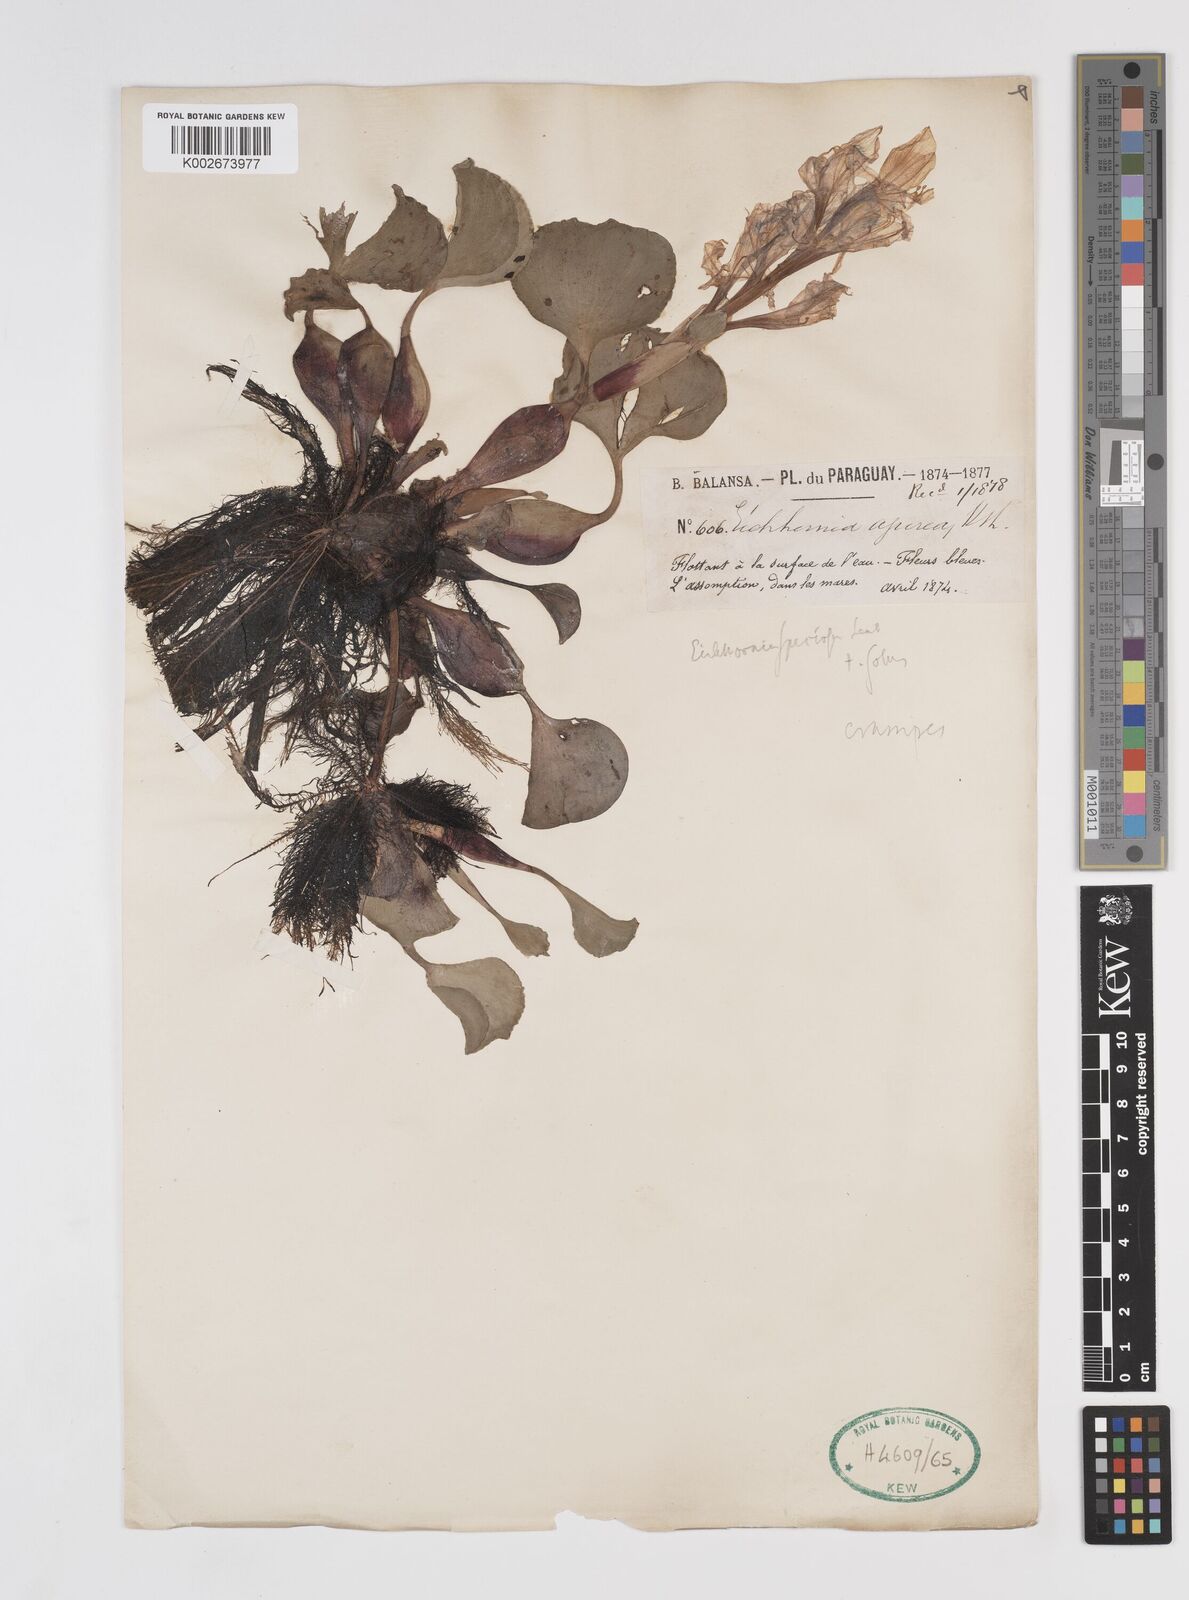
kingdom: Plantae
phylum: Tracheophyta
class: Liliopsida
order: Commelinales
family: Pontederiaceae
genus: Pontederia
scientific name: Pontederia crassipes
